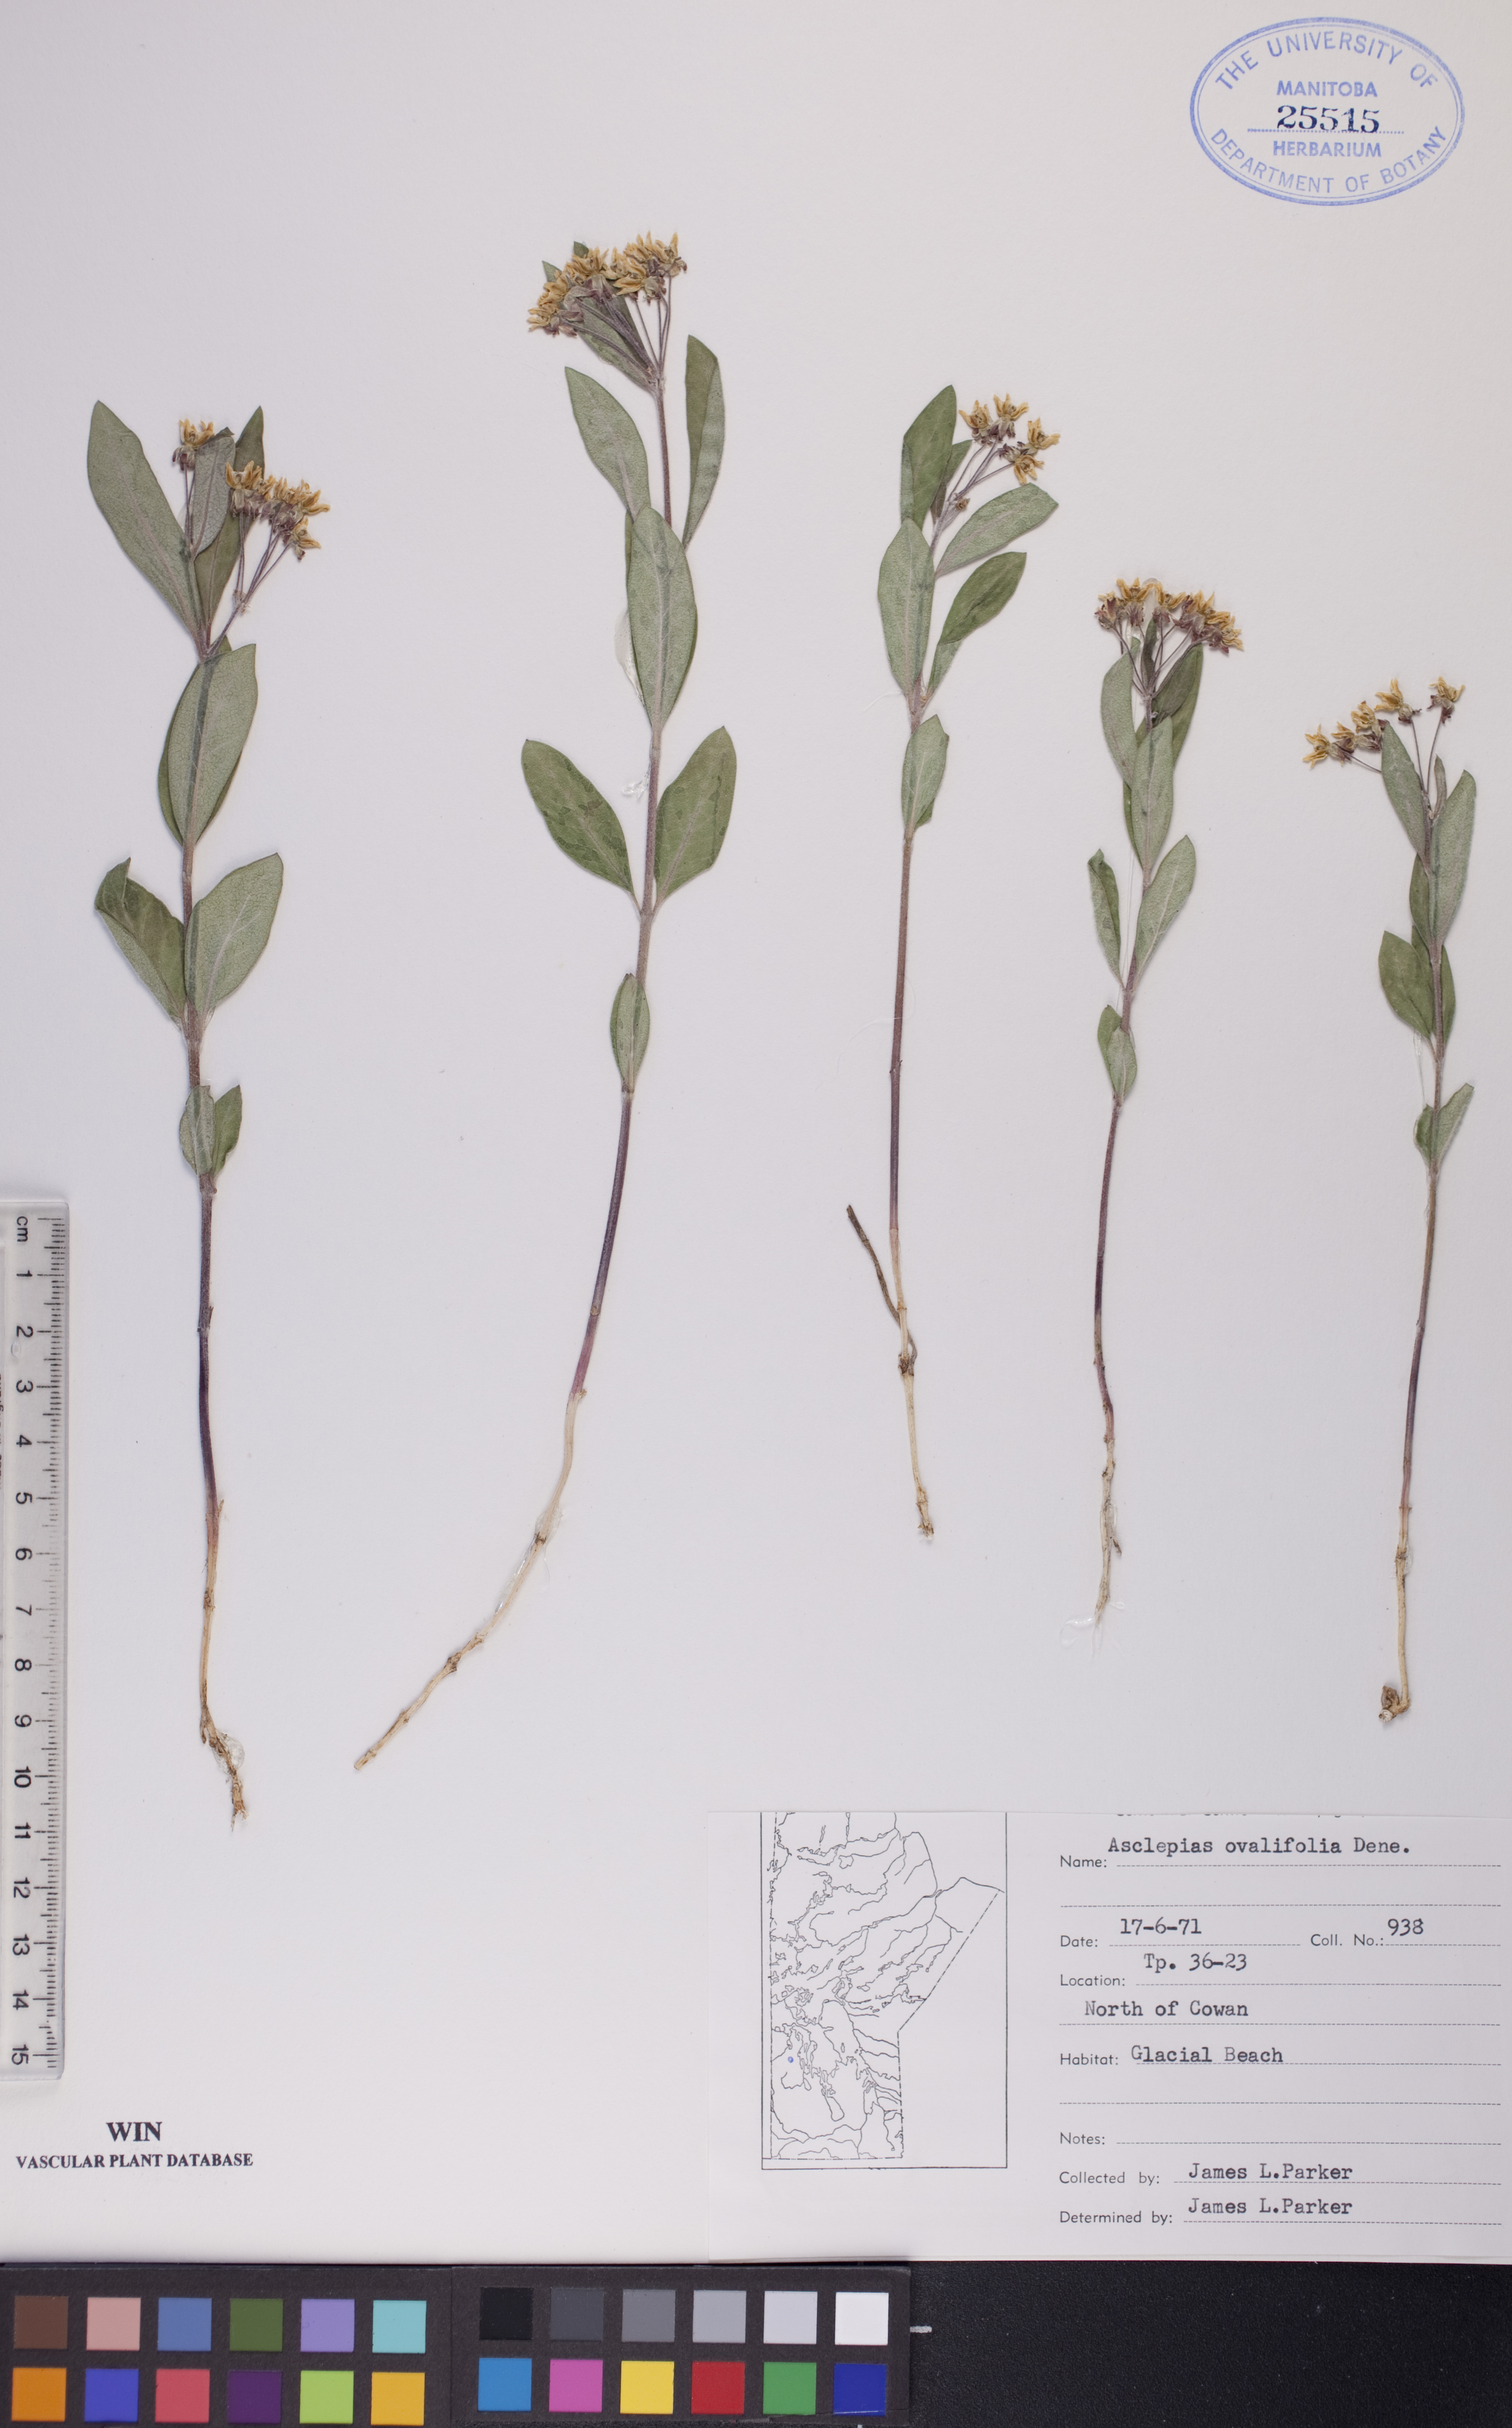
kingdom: Plantae
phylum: Tracheophyta
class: Magnoliopsida
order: Gentianales
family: Apocynaceae
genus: Asclepias
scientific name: Asclepias ovalifolia
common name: Dwarf milkweed
